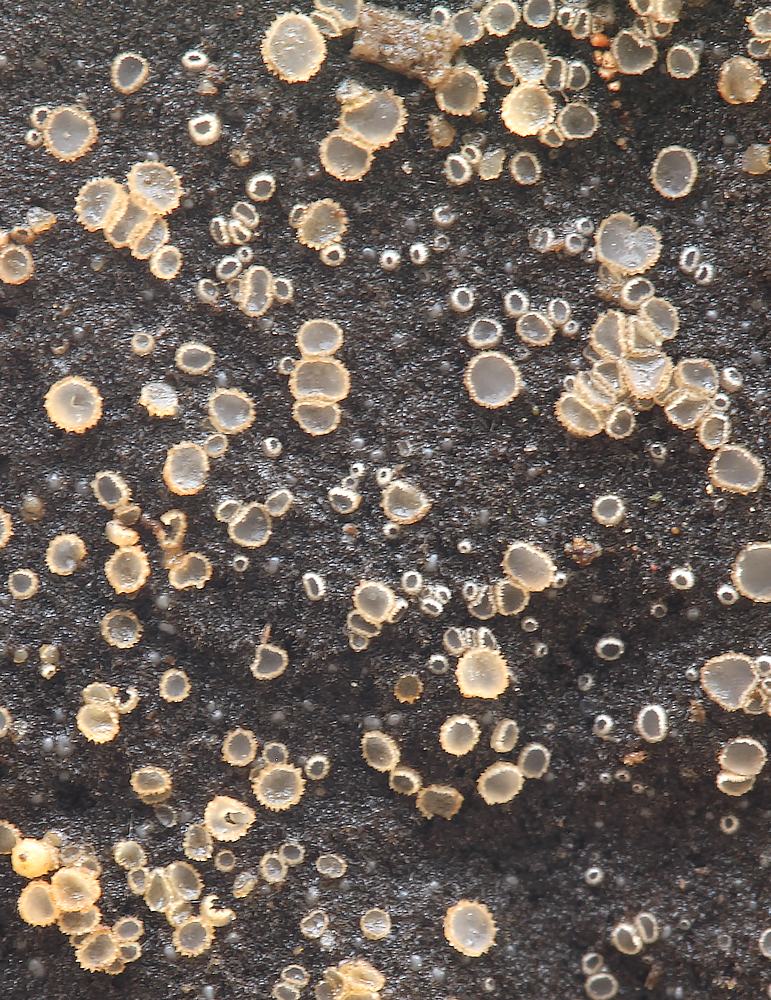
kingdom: Fungi
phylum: Ascomycota
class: Leotiomycetes
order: Helotiales
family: Hyaloscyphaceae
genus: Protounguicularia
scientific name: Protounguicularia transiens
